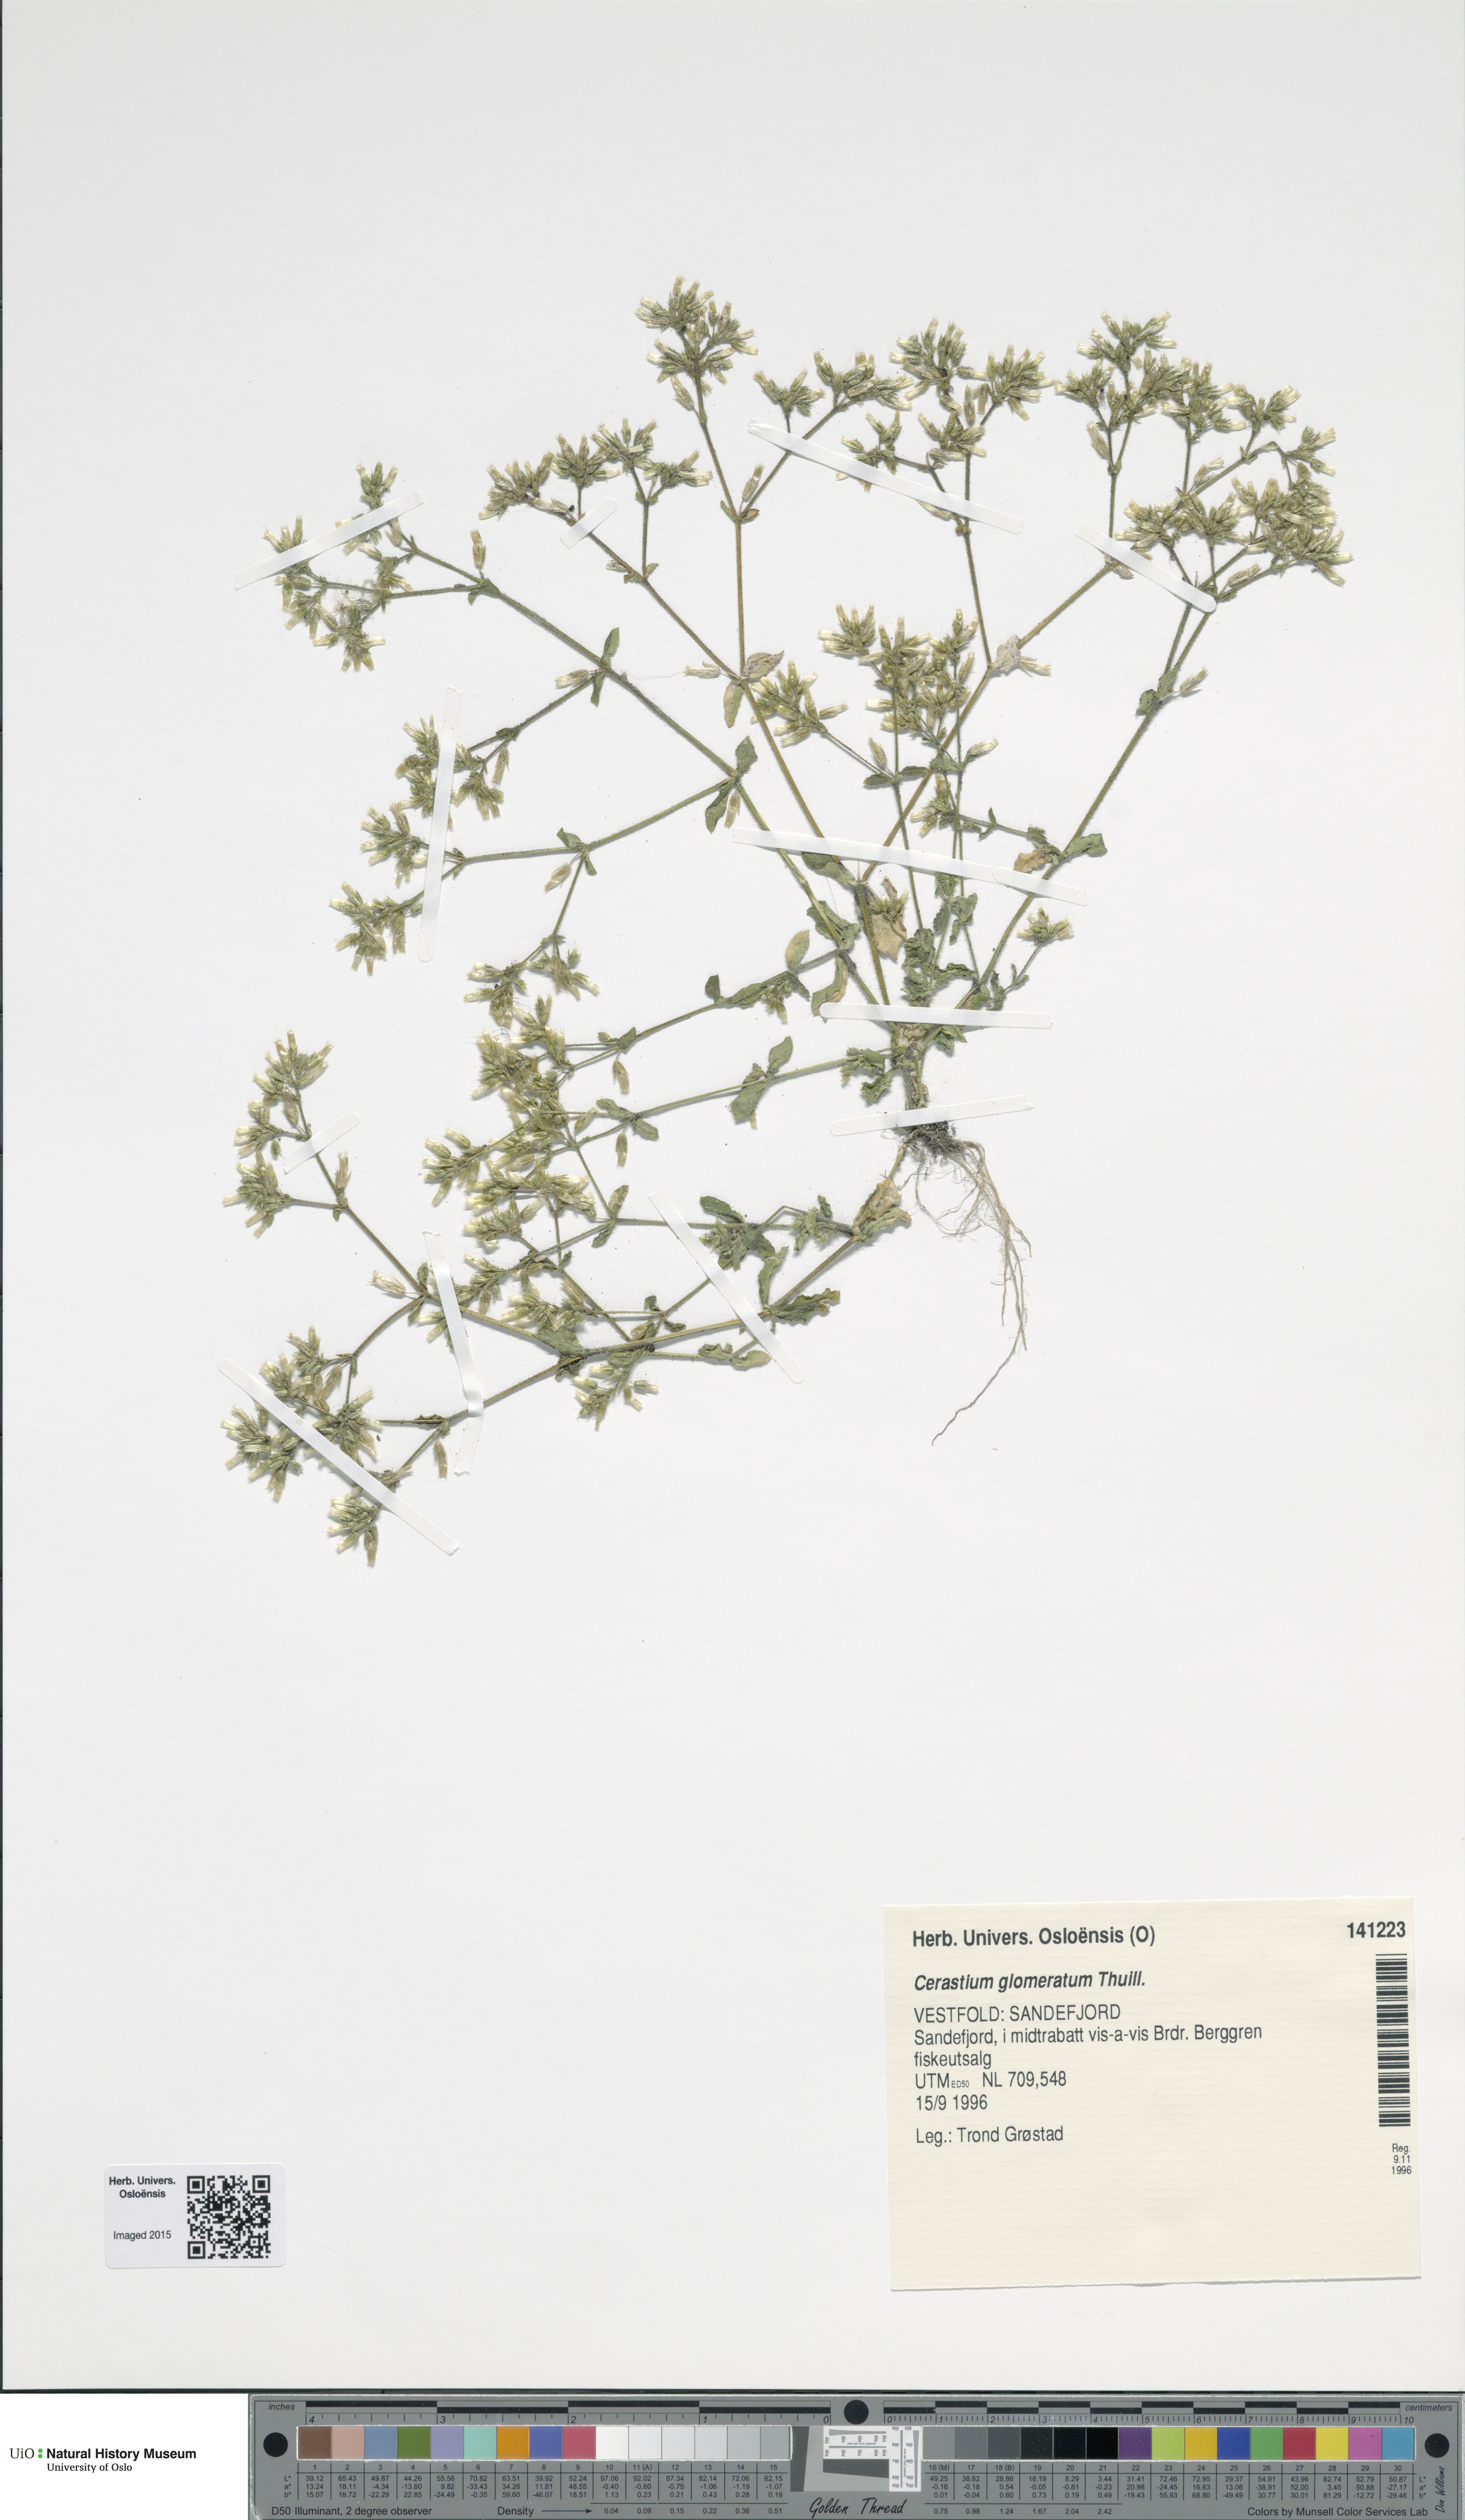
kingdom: Plantae
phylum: Tracheophyta
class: Magnoliopsida
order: Caryophyllales
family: Caryophyllaceae
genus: Cerastium
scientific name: Cerastium glomeratum
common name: Sticky chickweed
